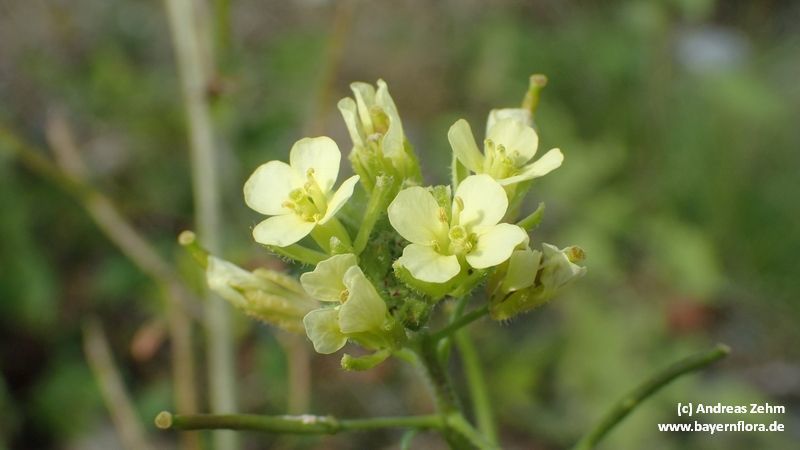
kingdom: Plantae
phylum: Tracheophyta
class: Magnoliopsida
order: Brassicales
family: Brassicaceae
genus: Erucastrum
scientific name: Erucastrum nasturtiifolium
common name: Watercress-leaf rocket
